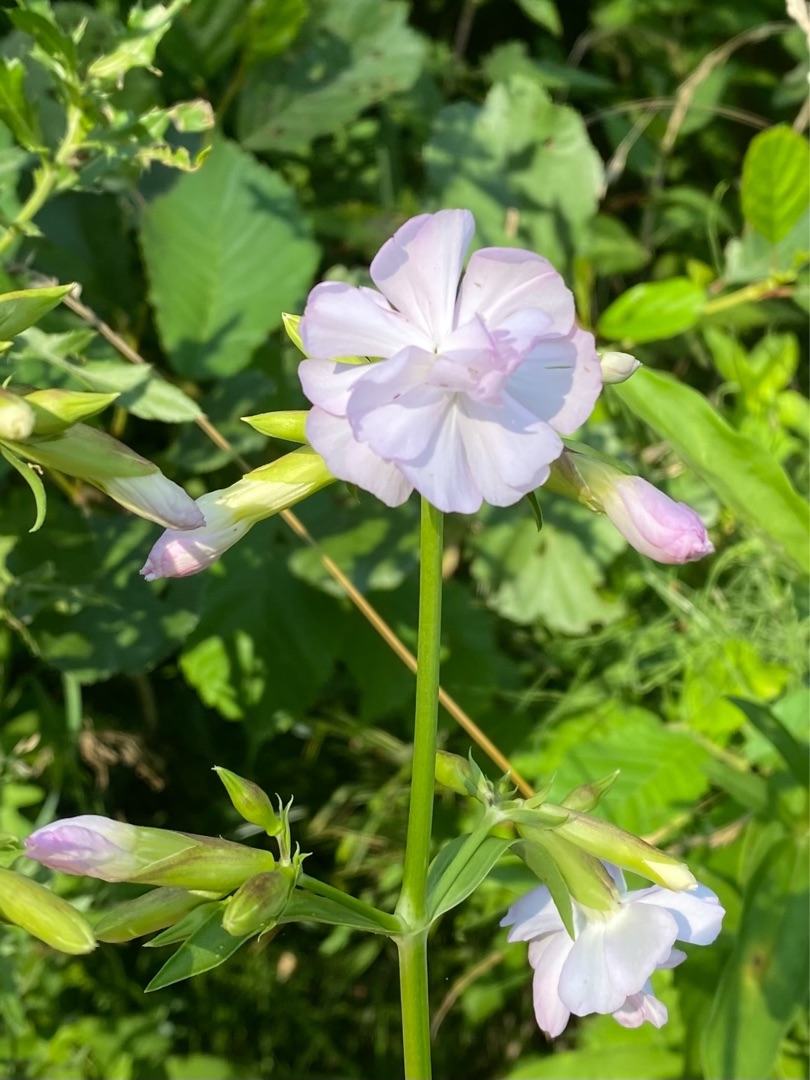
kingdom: Plantae
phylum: Tracheophyta
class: Magnoliopsida
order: Caryophyllales
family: Caryophyllaceae
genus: Saponaria
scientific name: Saponaria officinalis
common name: Sæbeurt
